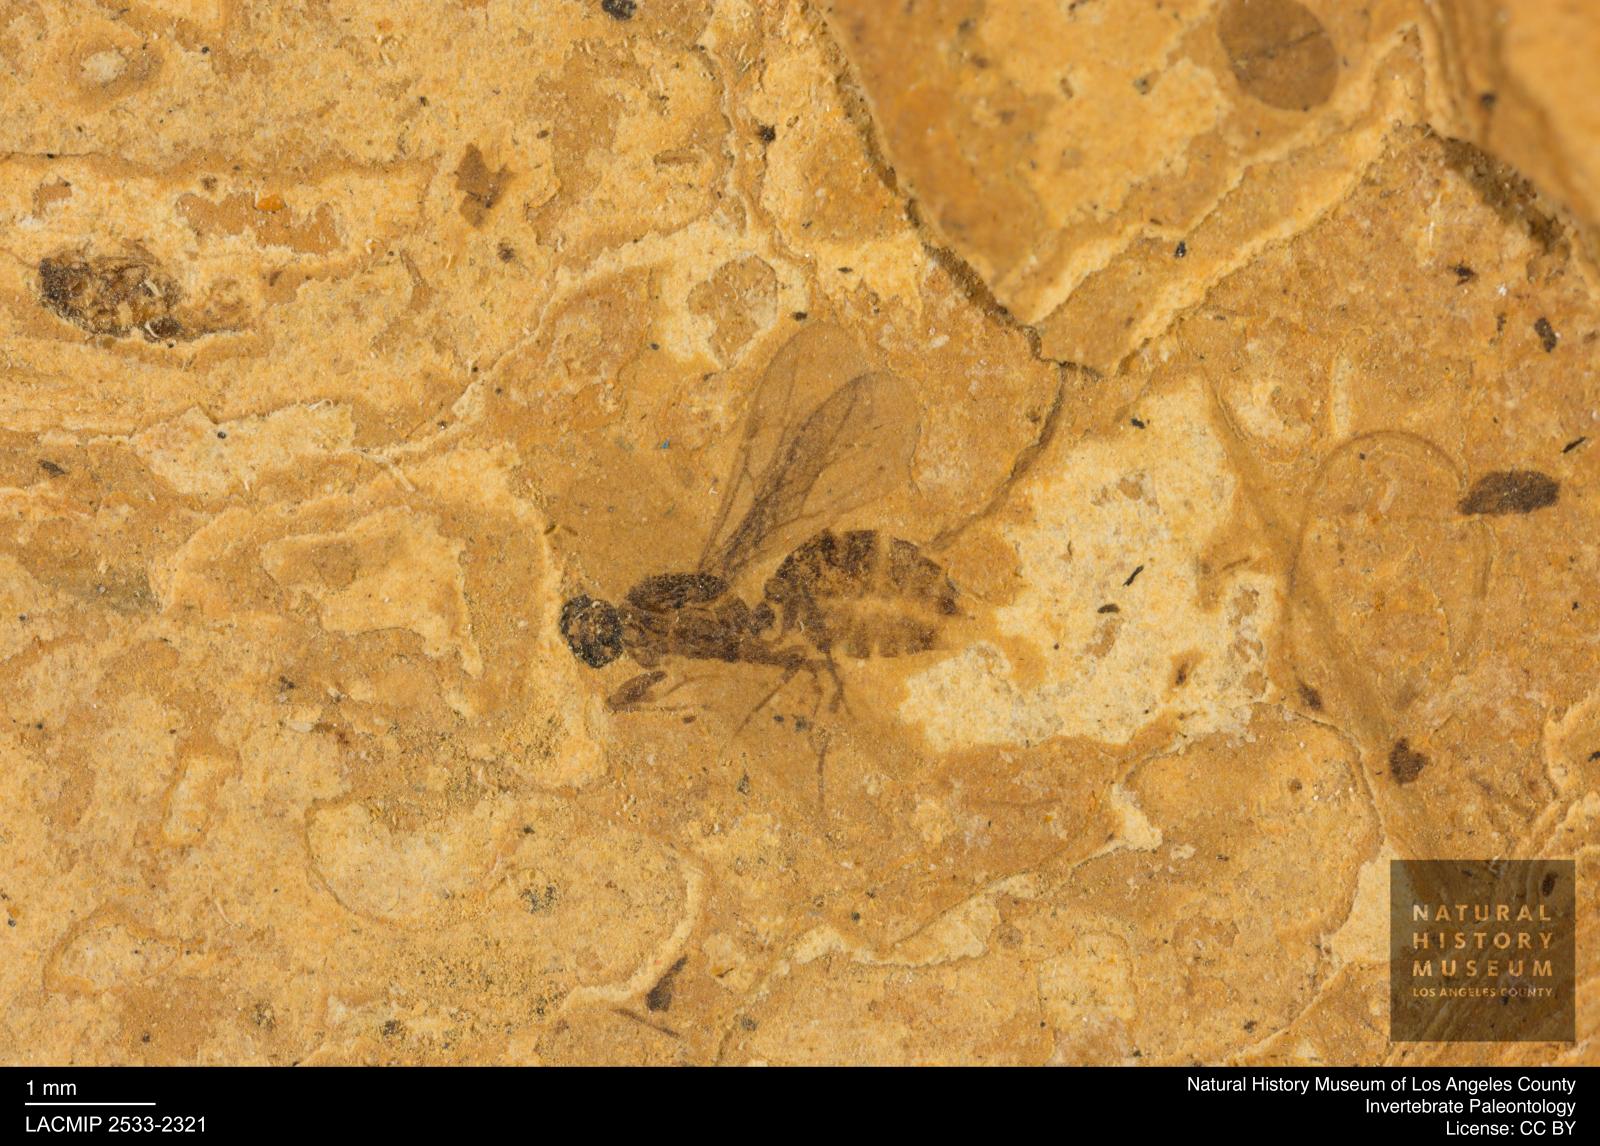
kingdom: Animalia
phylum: Arthropoda
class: Insecta
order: Hymenoptera
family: Formicidae
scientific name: Formicidae
